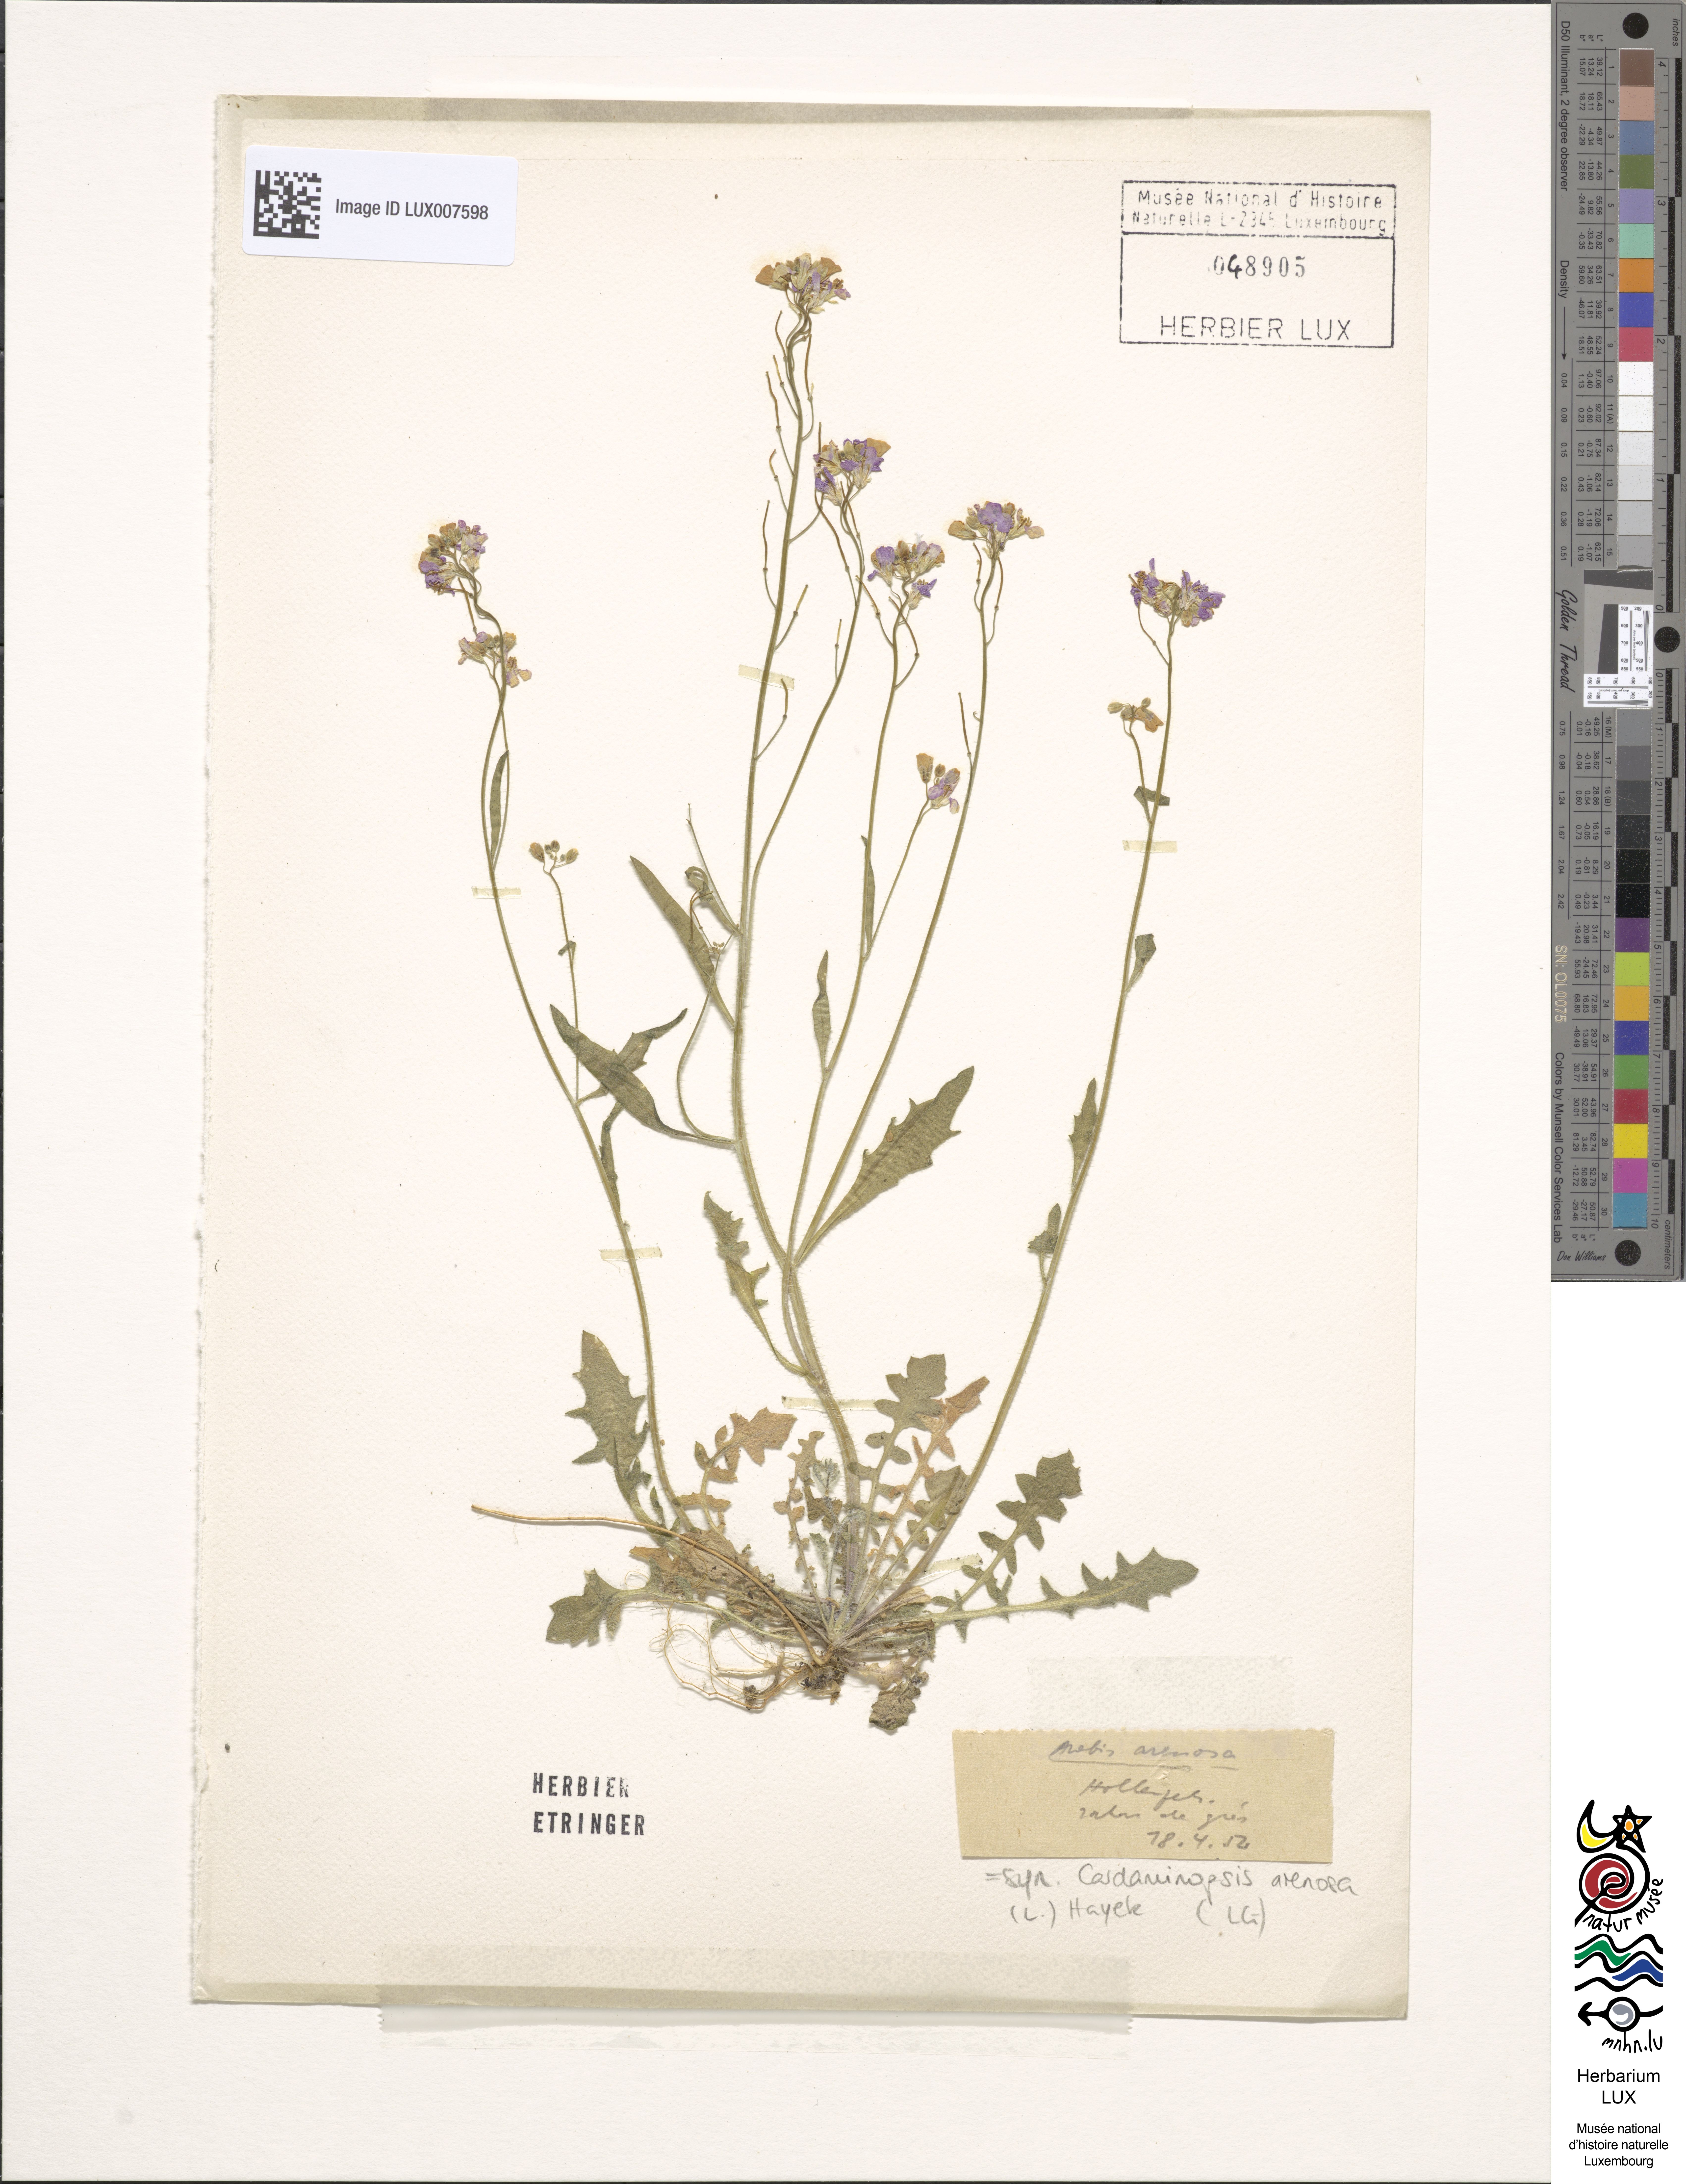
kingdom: Plantae
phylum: Tracheophyta
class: Magnoliopsida
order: Brassicales
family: Brassicaceae
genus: Arabidopsis
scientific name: Arabidopsis arenosa
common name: Sand rock-cress
